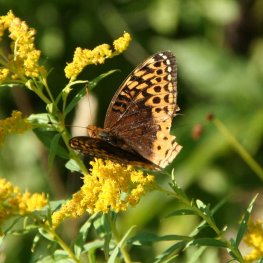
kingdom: Animalia
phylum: Arthropoda
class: Insecta
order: Lepidoptera
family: Nymphalidae
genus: Speyeria
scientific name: Speyeria cybele
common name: Great Spangled Fritillary
